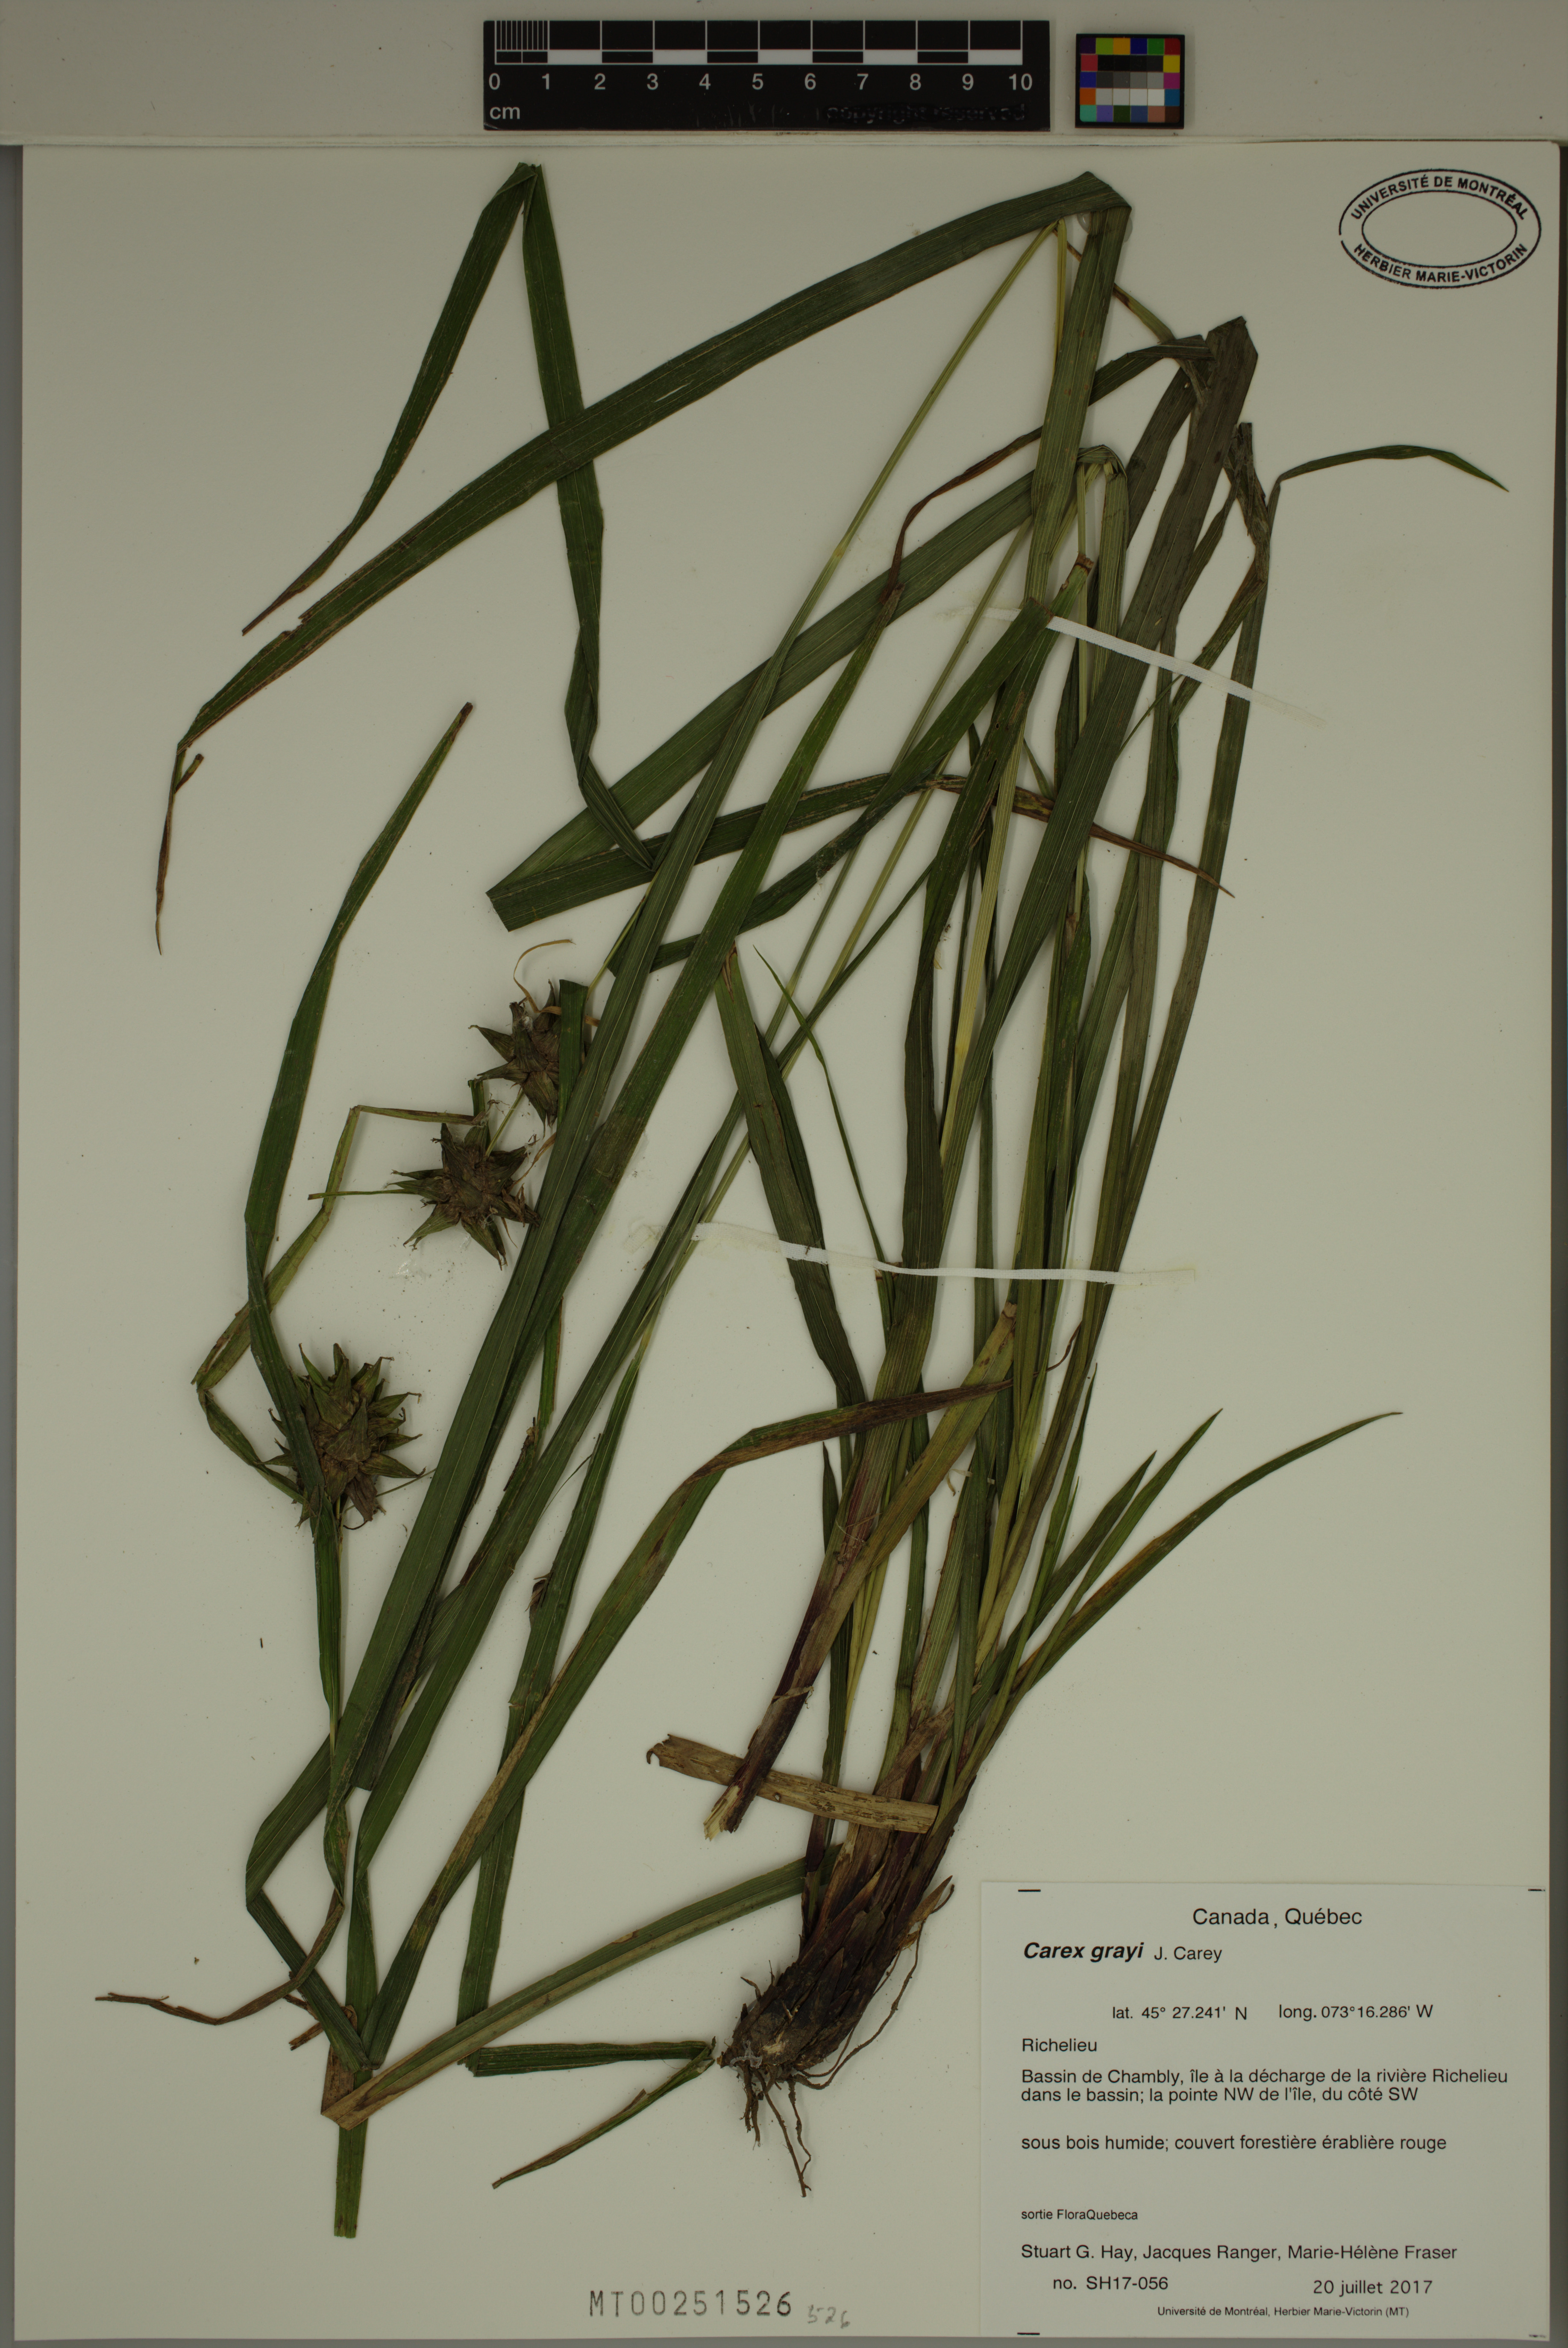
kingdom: Plantae
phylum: Tracheophyta
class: Liliopsida
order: Poales
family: Cyperaceae
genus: Carex
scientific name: Carex grayi
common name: Asa gray's sedge
